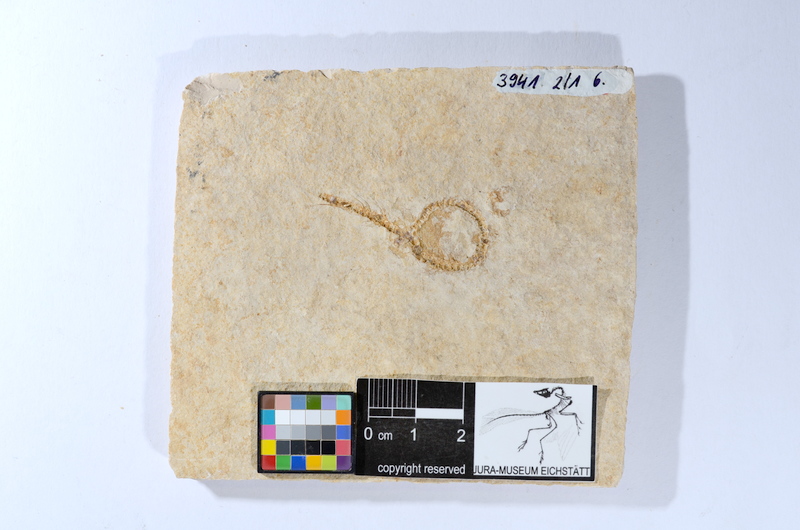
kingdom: Animalia
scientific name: Animalia
